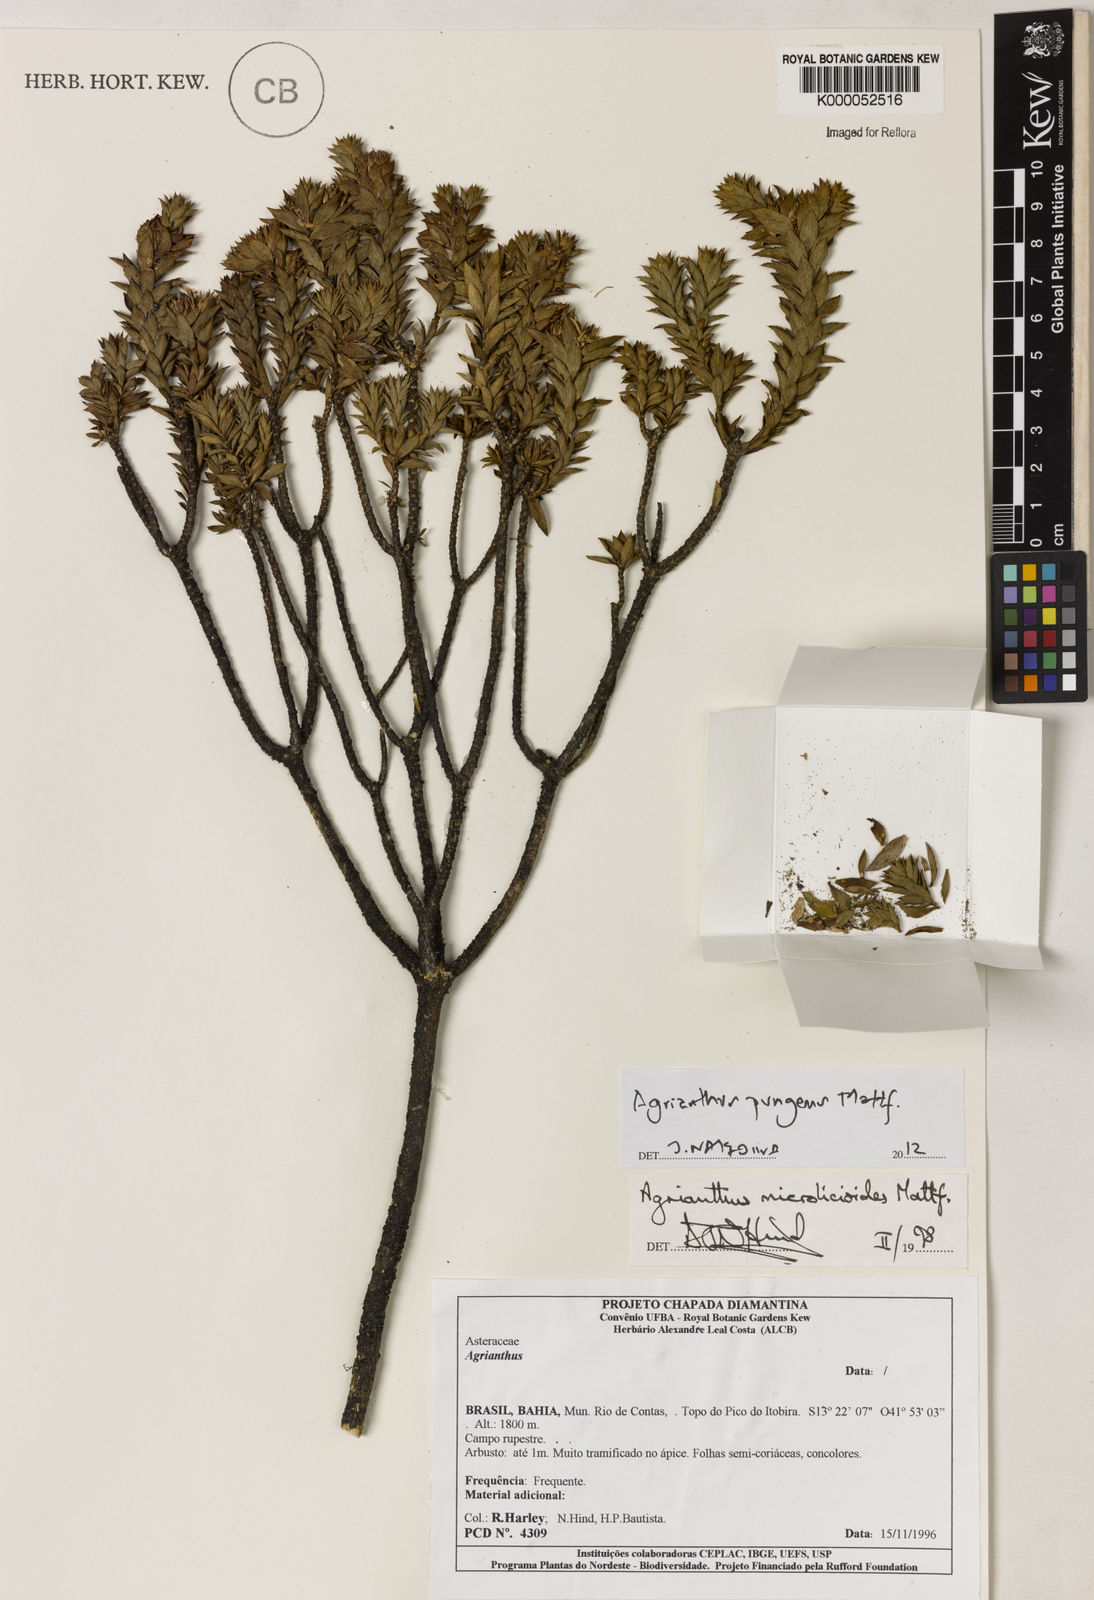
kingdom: Plantae
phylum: Tracheophyta
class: Magnoliopsida
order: Asterales
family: Asteraceae
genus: Agrianthus
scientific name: Agrianthus microlicioides
